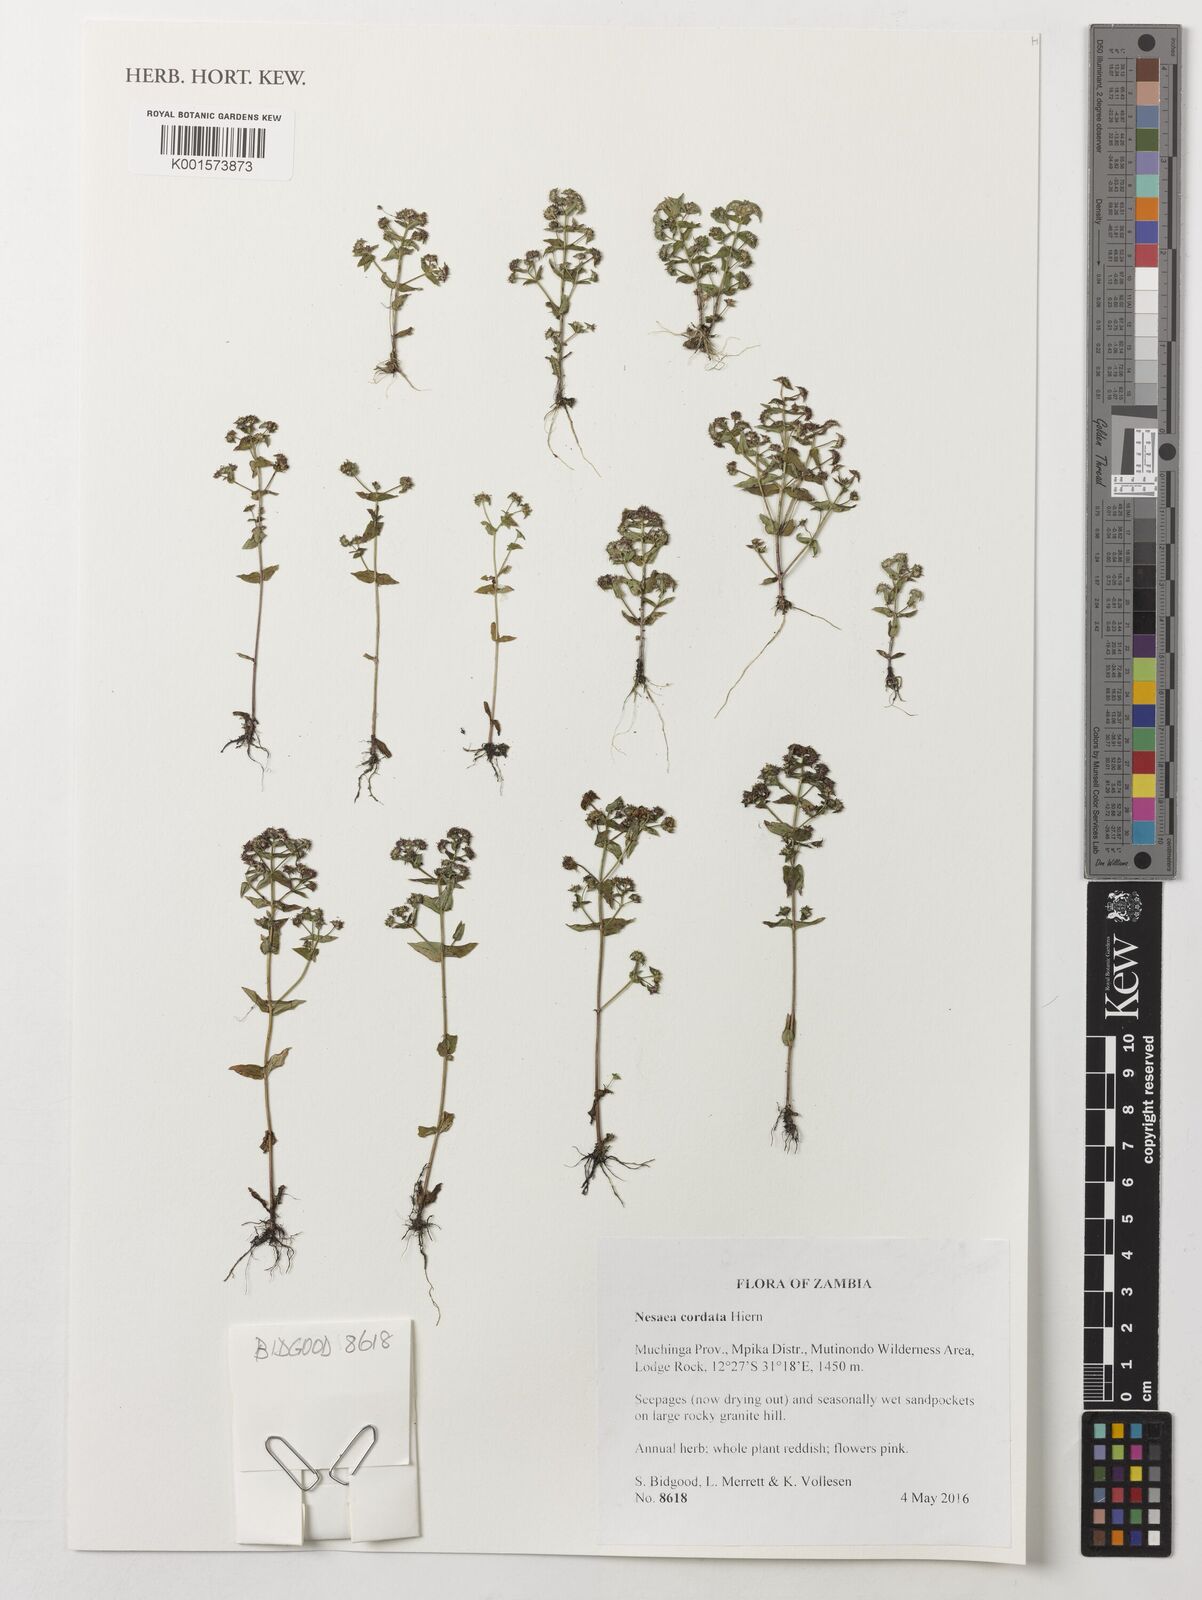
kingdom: Plantae
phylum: Tracheophyta
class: Magnoliopsida
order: Myrtales
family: Lythraceae
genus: Ammannia
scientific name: Ammannia involucrata
